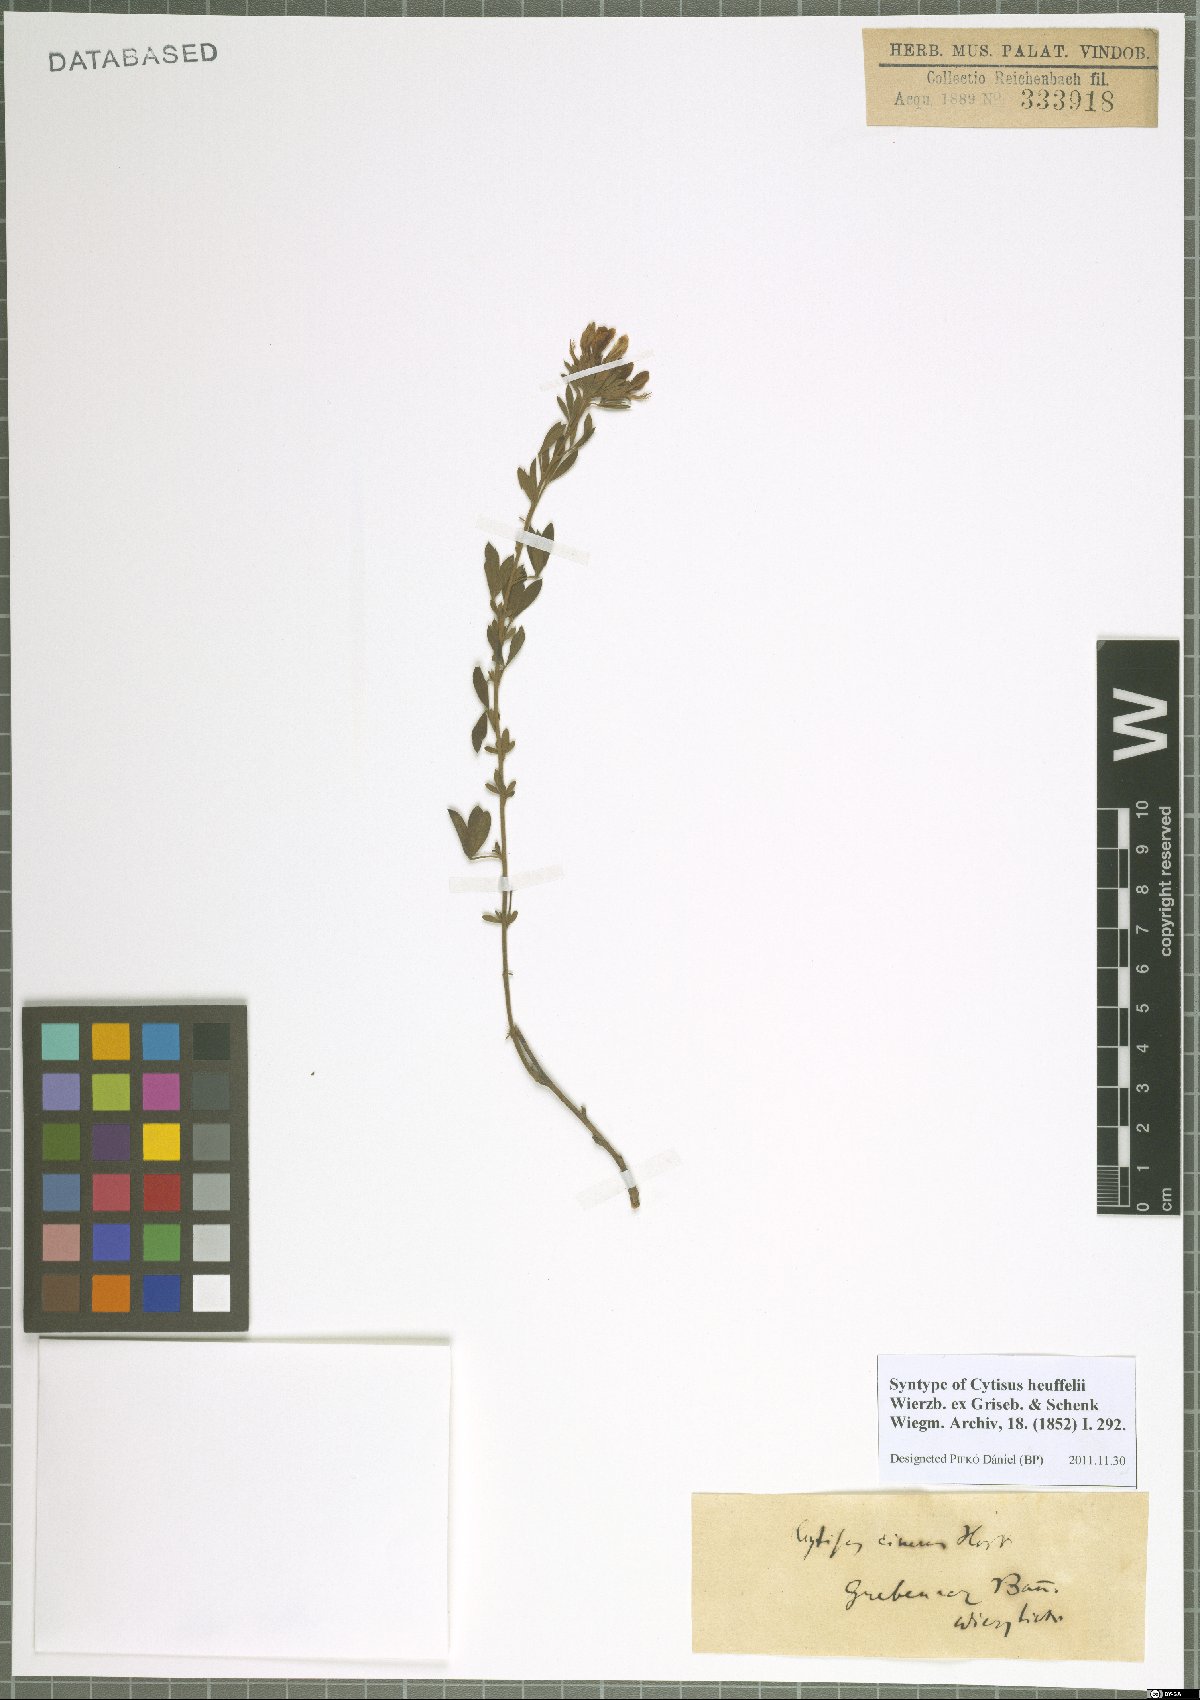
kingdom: Plantae
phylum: Tracheophyta
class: Magnoliopsida
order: Fabales
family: Fabaceae
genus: Cytisophyllum
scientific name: Cytisophyllum Cytisus heuffelii
